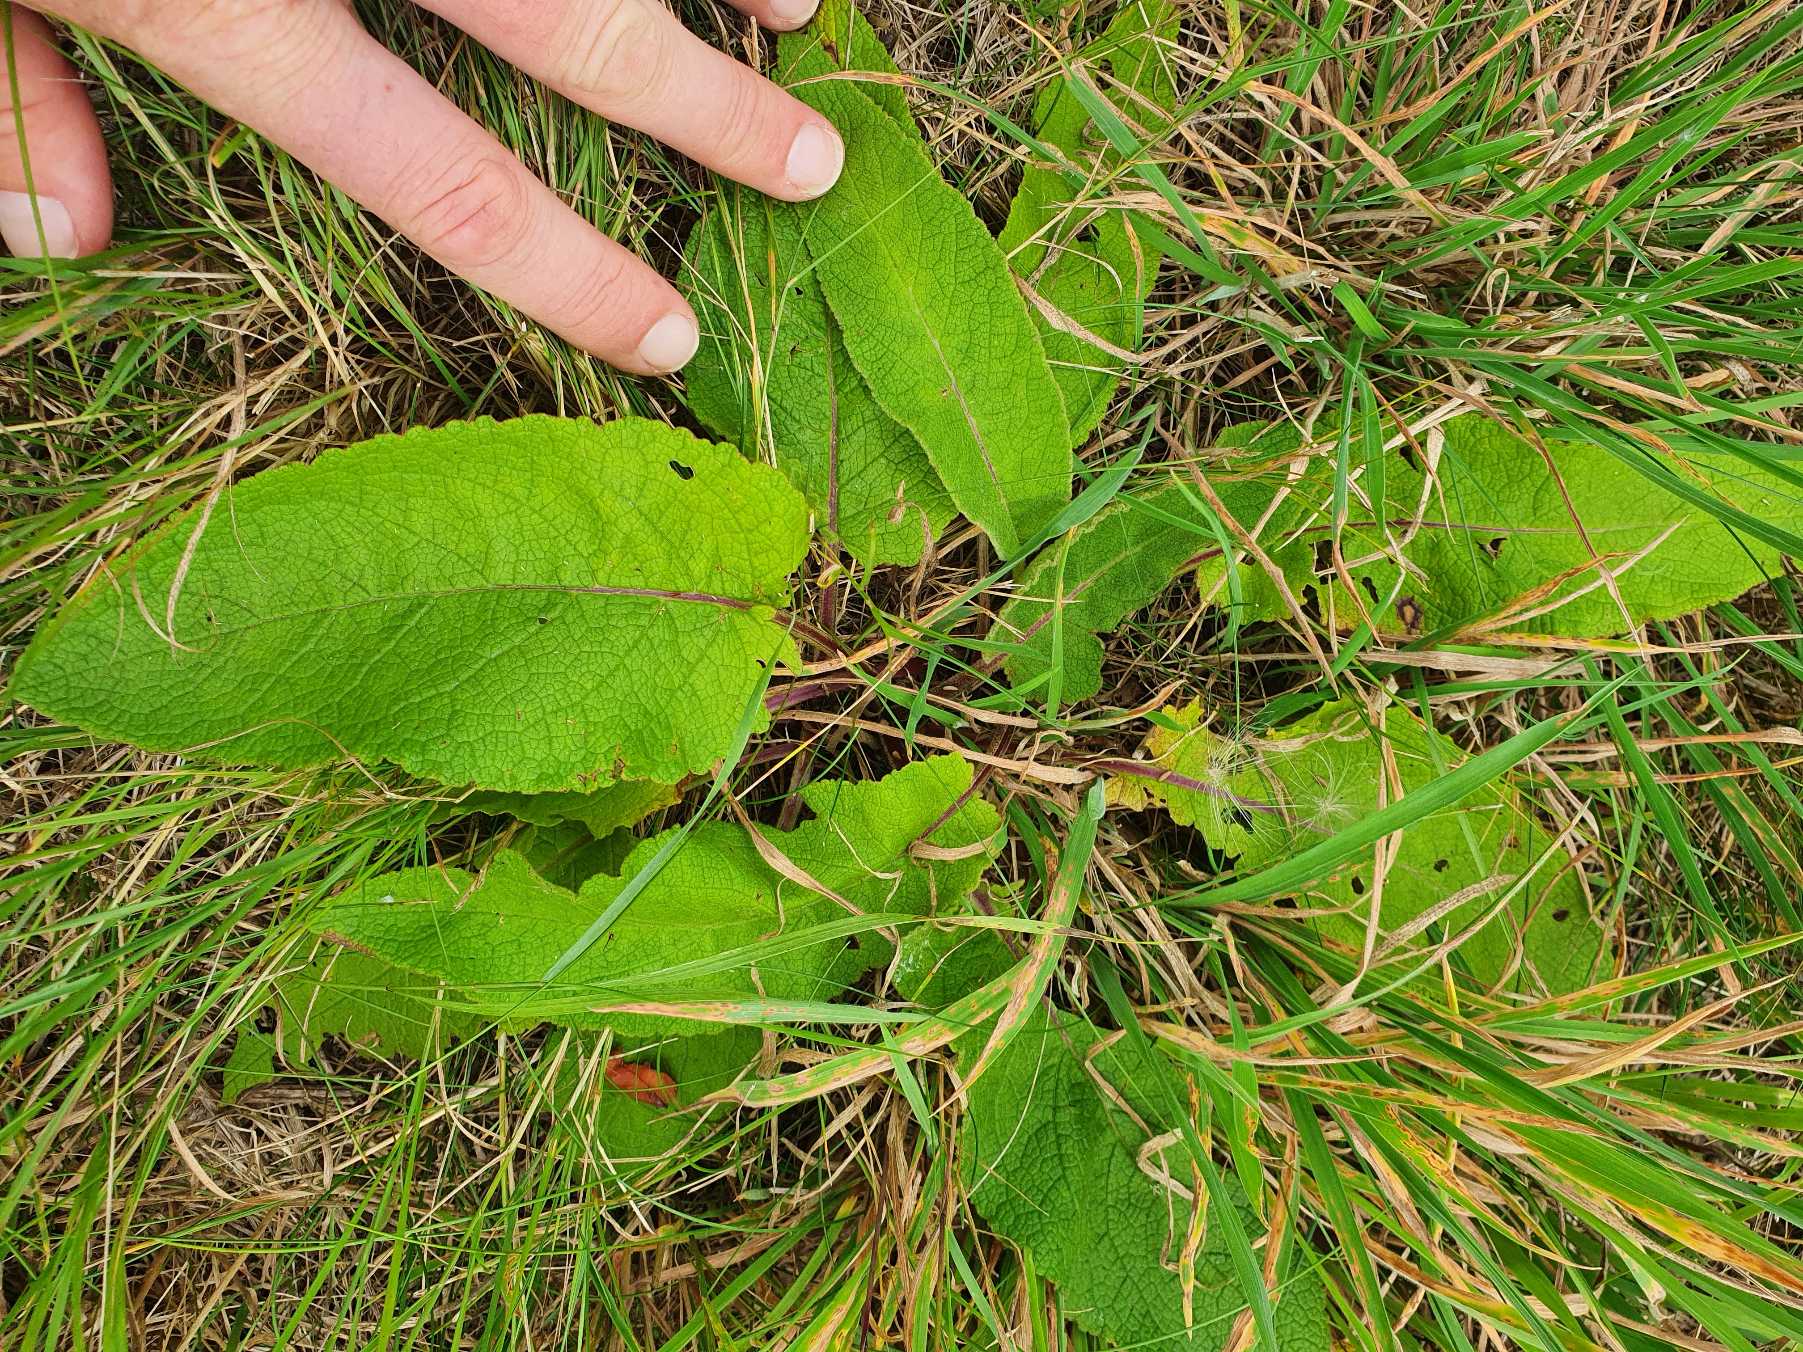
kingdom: Plantae
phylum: Tracheophyta
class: Magnoliopsida
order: Lamiales
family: Scrophulariaceae
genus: Verbascum
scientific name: Verbascum nigrum
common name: Mørk kongelys
